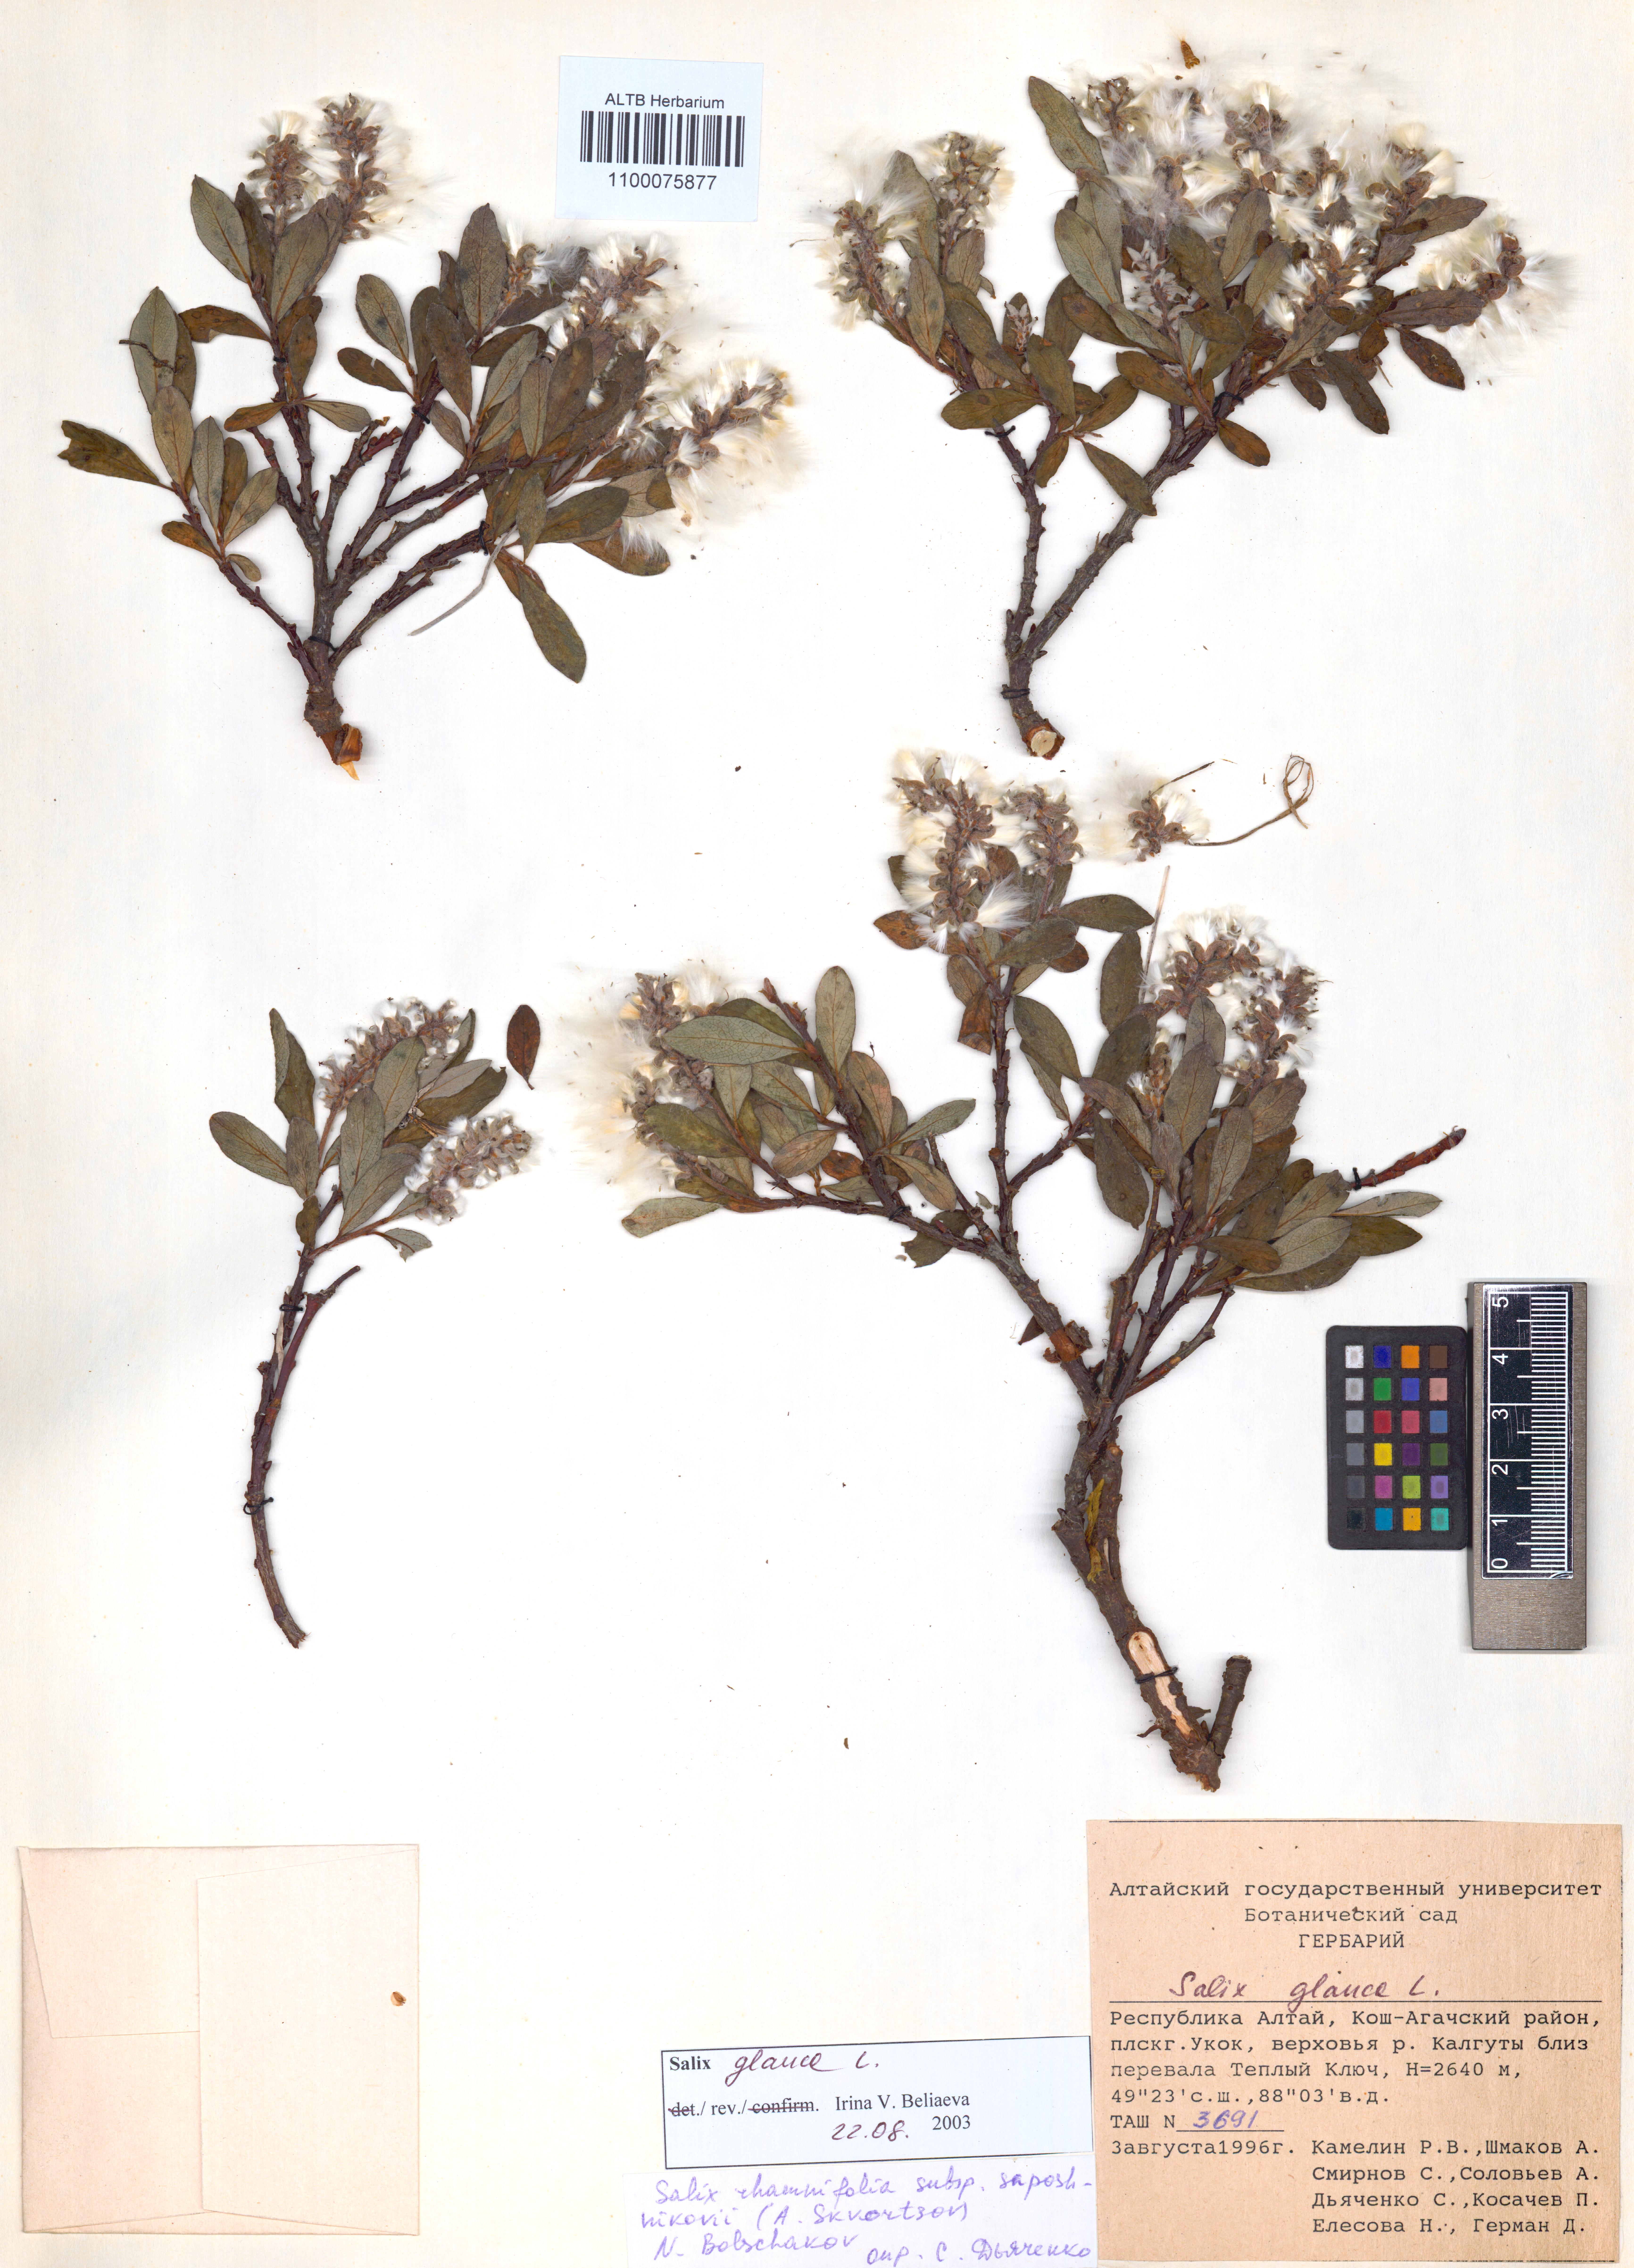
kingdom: Plantae
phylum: Tracheophyta
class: Magnoliopsida
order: Malpighiales
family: Salicaceae
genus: Salix
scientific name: Salix glauca
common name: Glaucous willow
